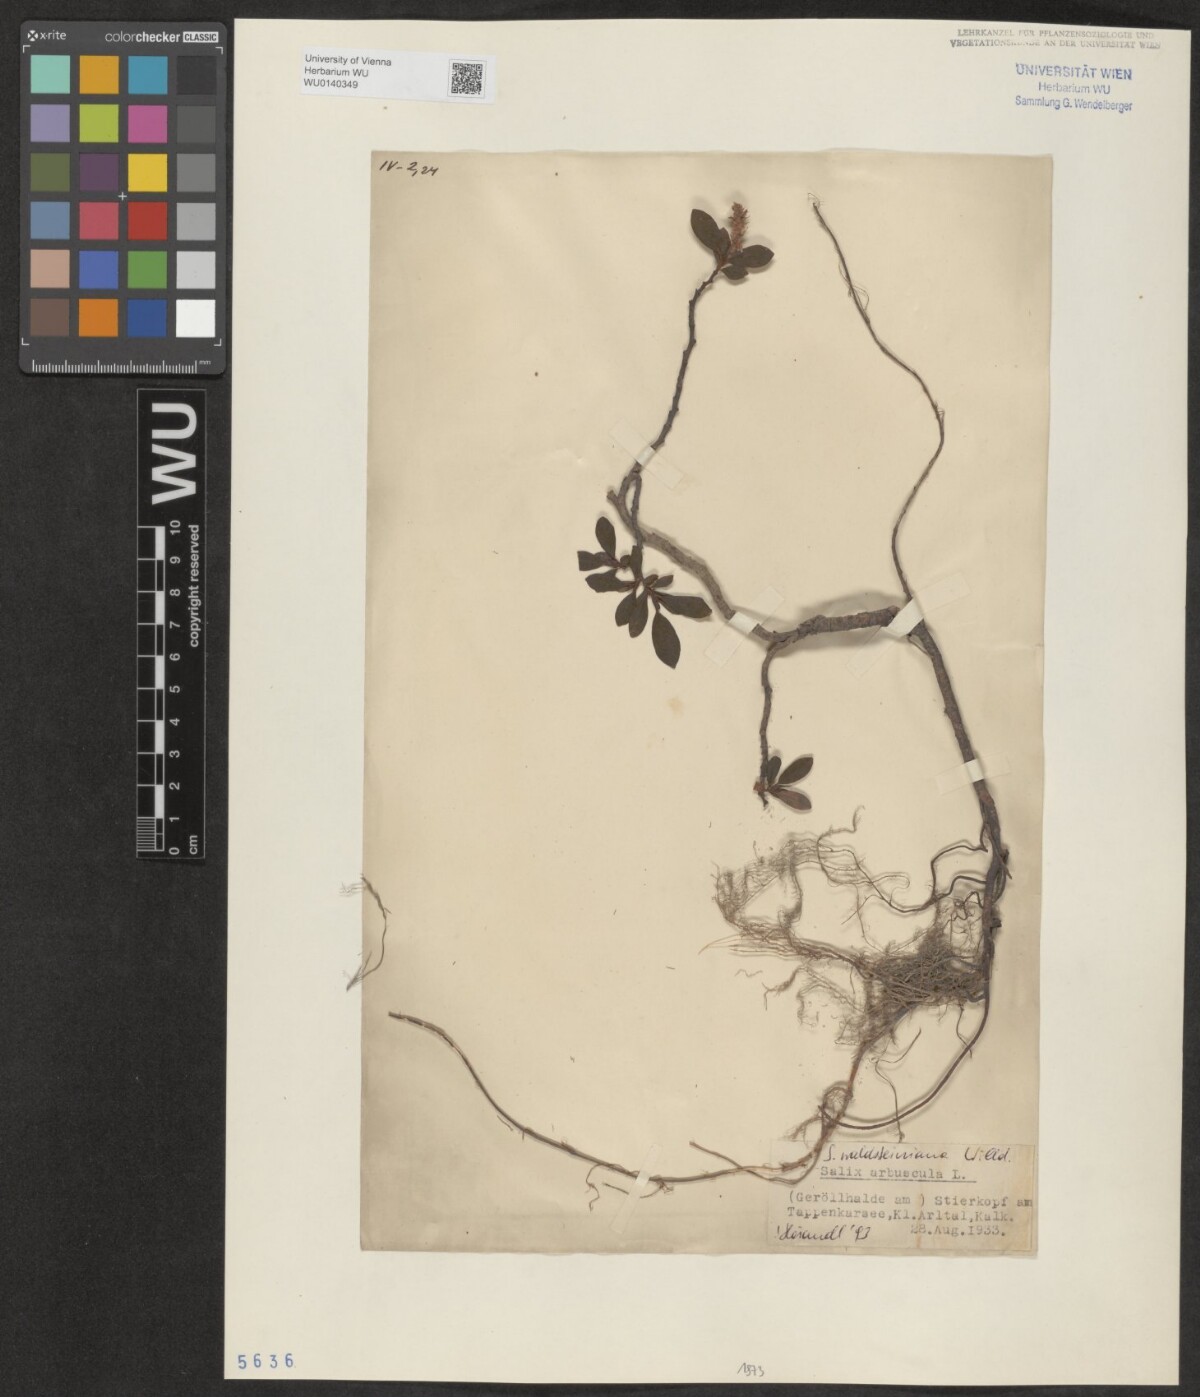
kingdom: Plantae
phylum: Tracheophyta
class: Magnoliopsida
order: Malpighiales
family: Salicaceae
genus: Salix
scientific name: Salix waldsteiniana
